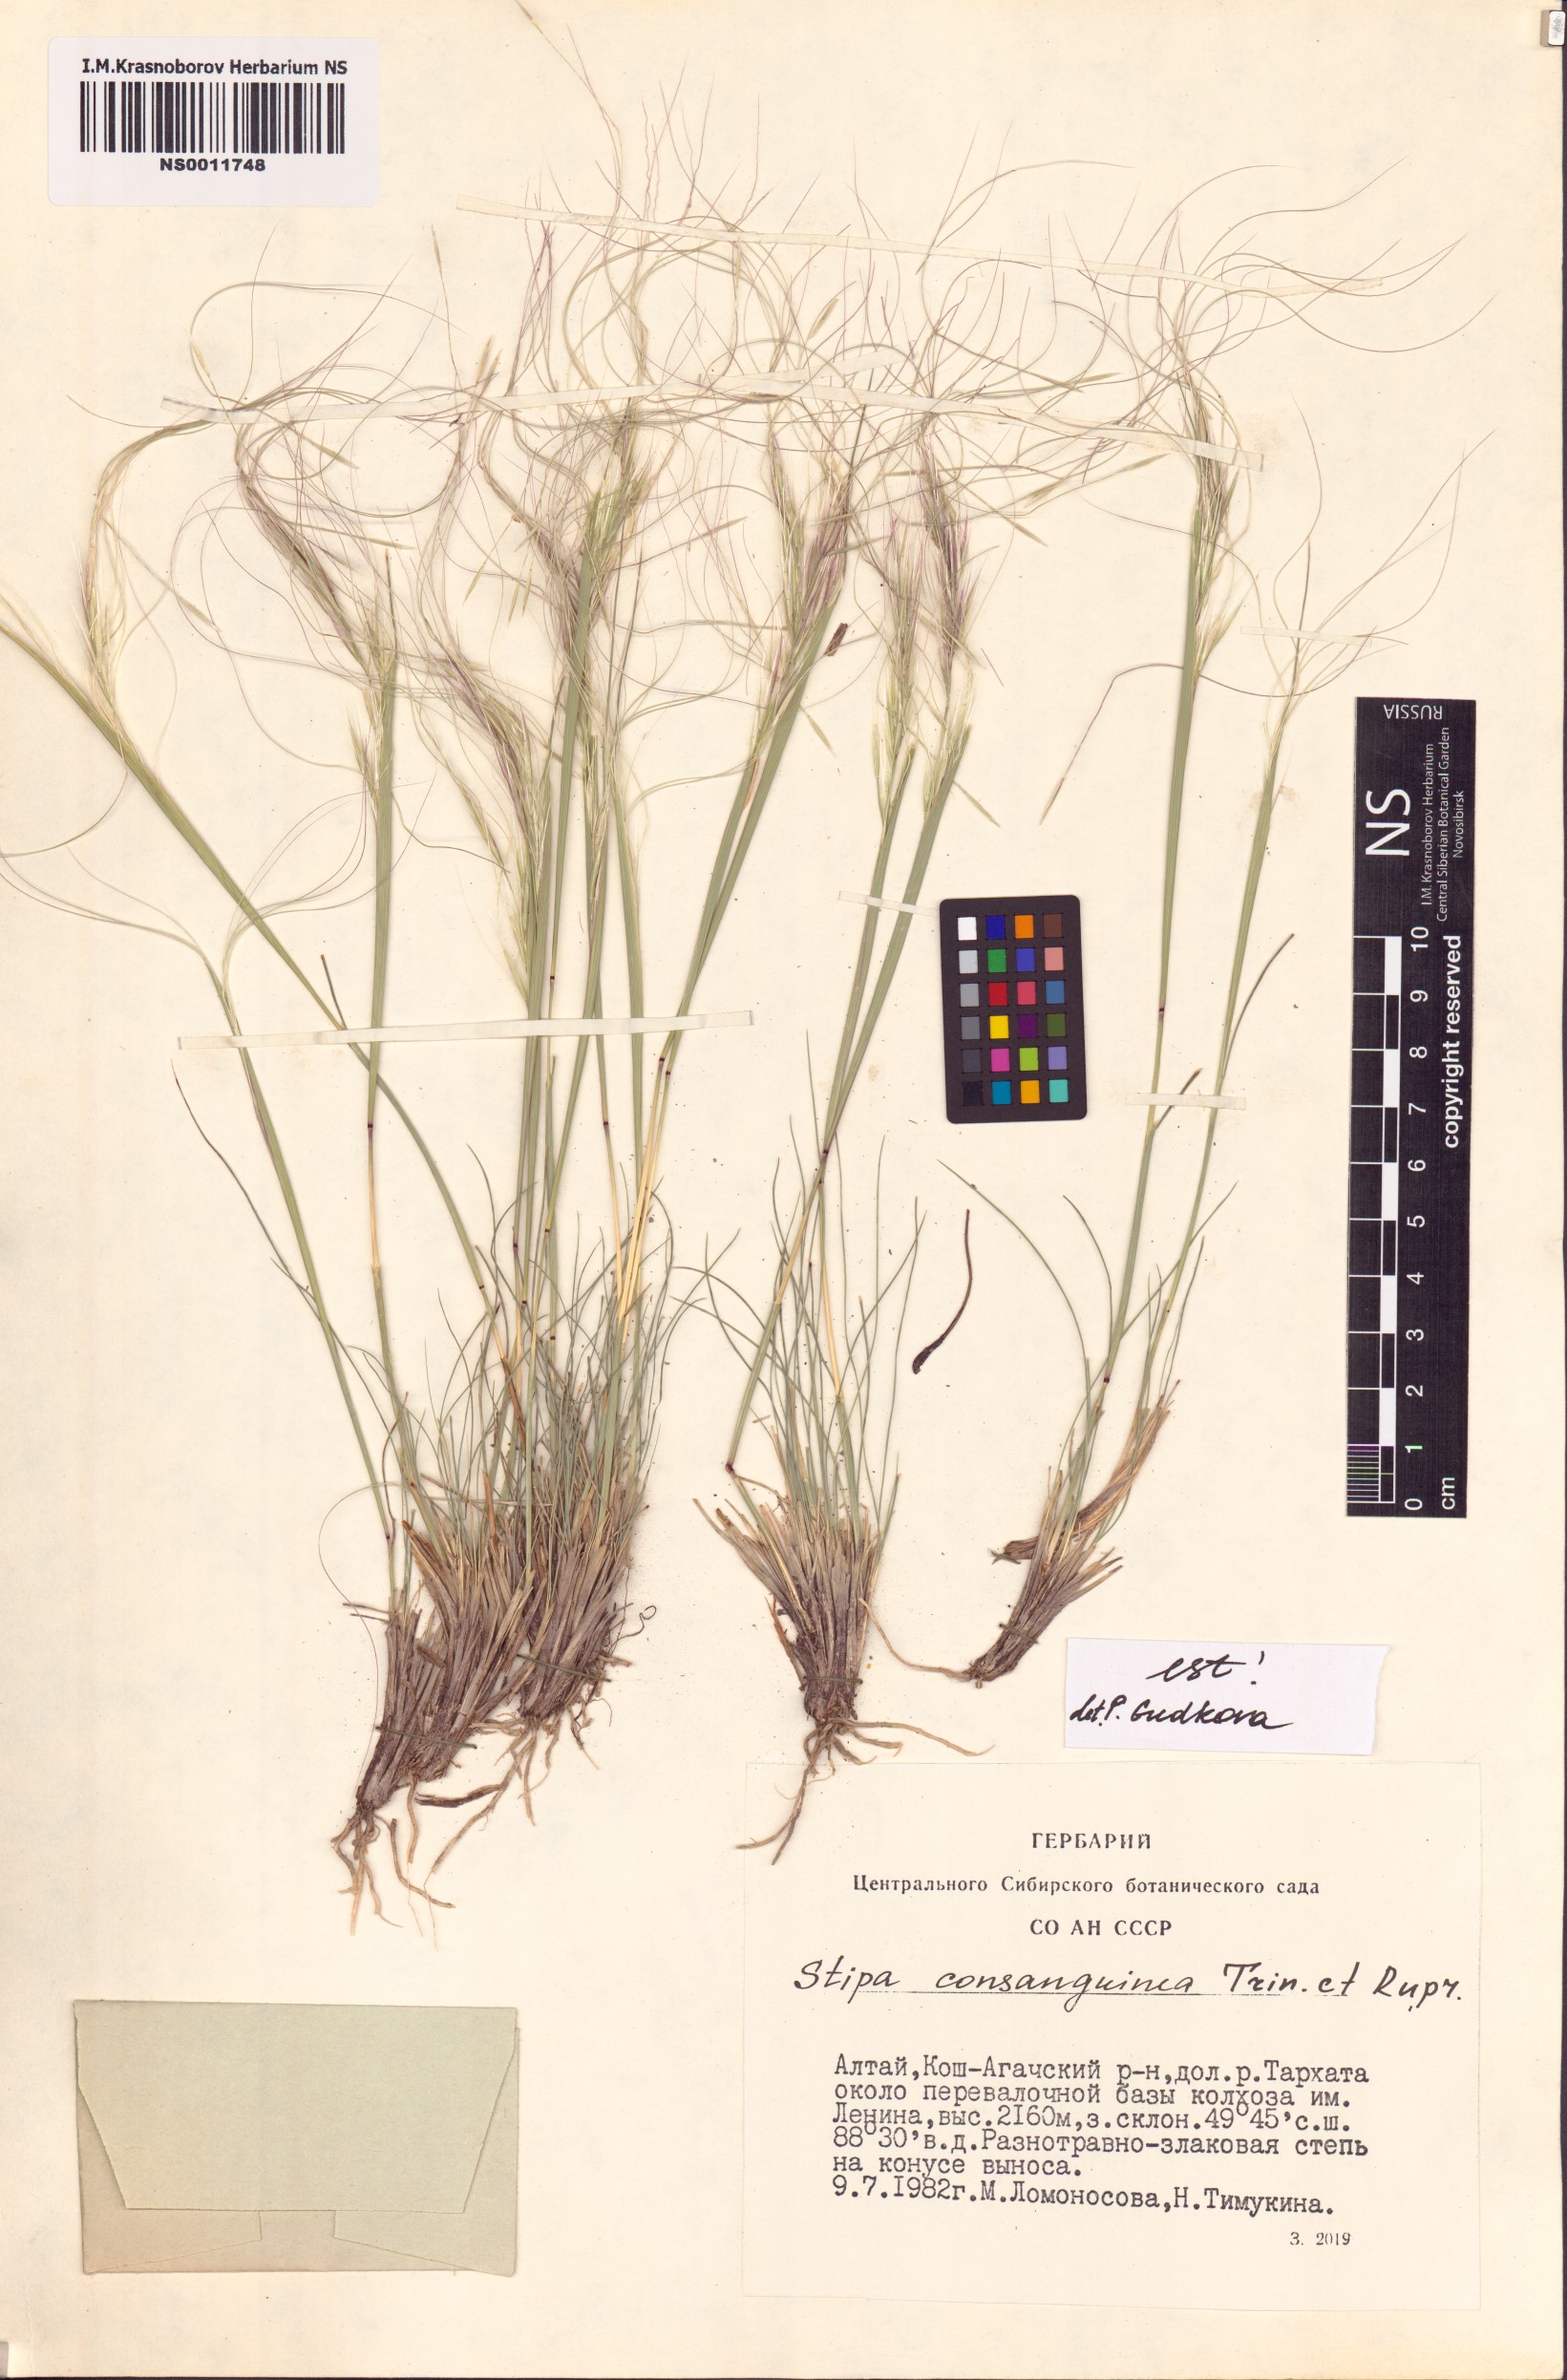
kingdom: Plantae
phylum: Tracheophyta
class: Liliopsida
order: Poales
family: Poaceae
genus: Stipa
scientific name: Stipa consanguinea
